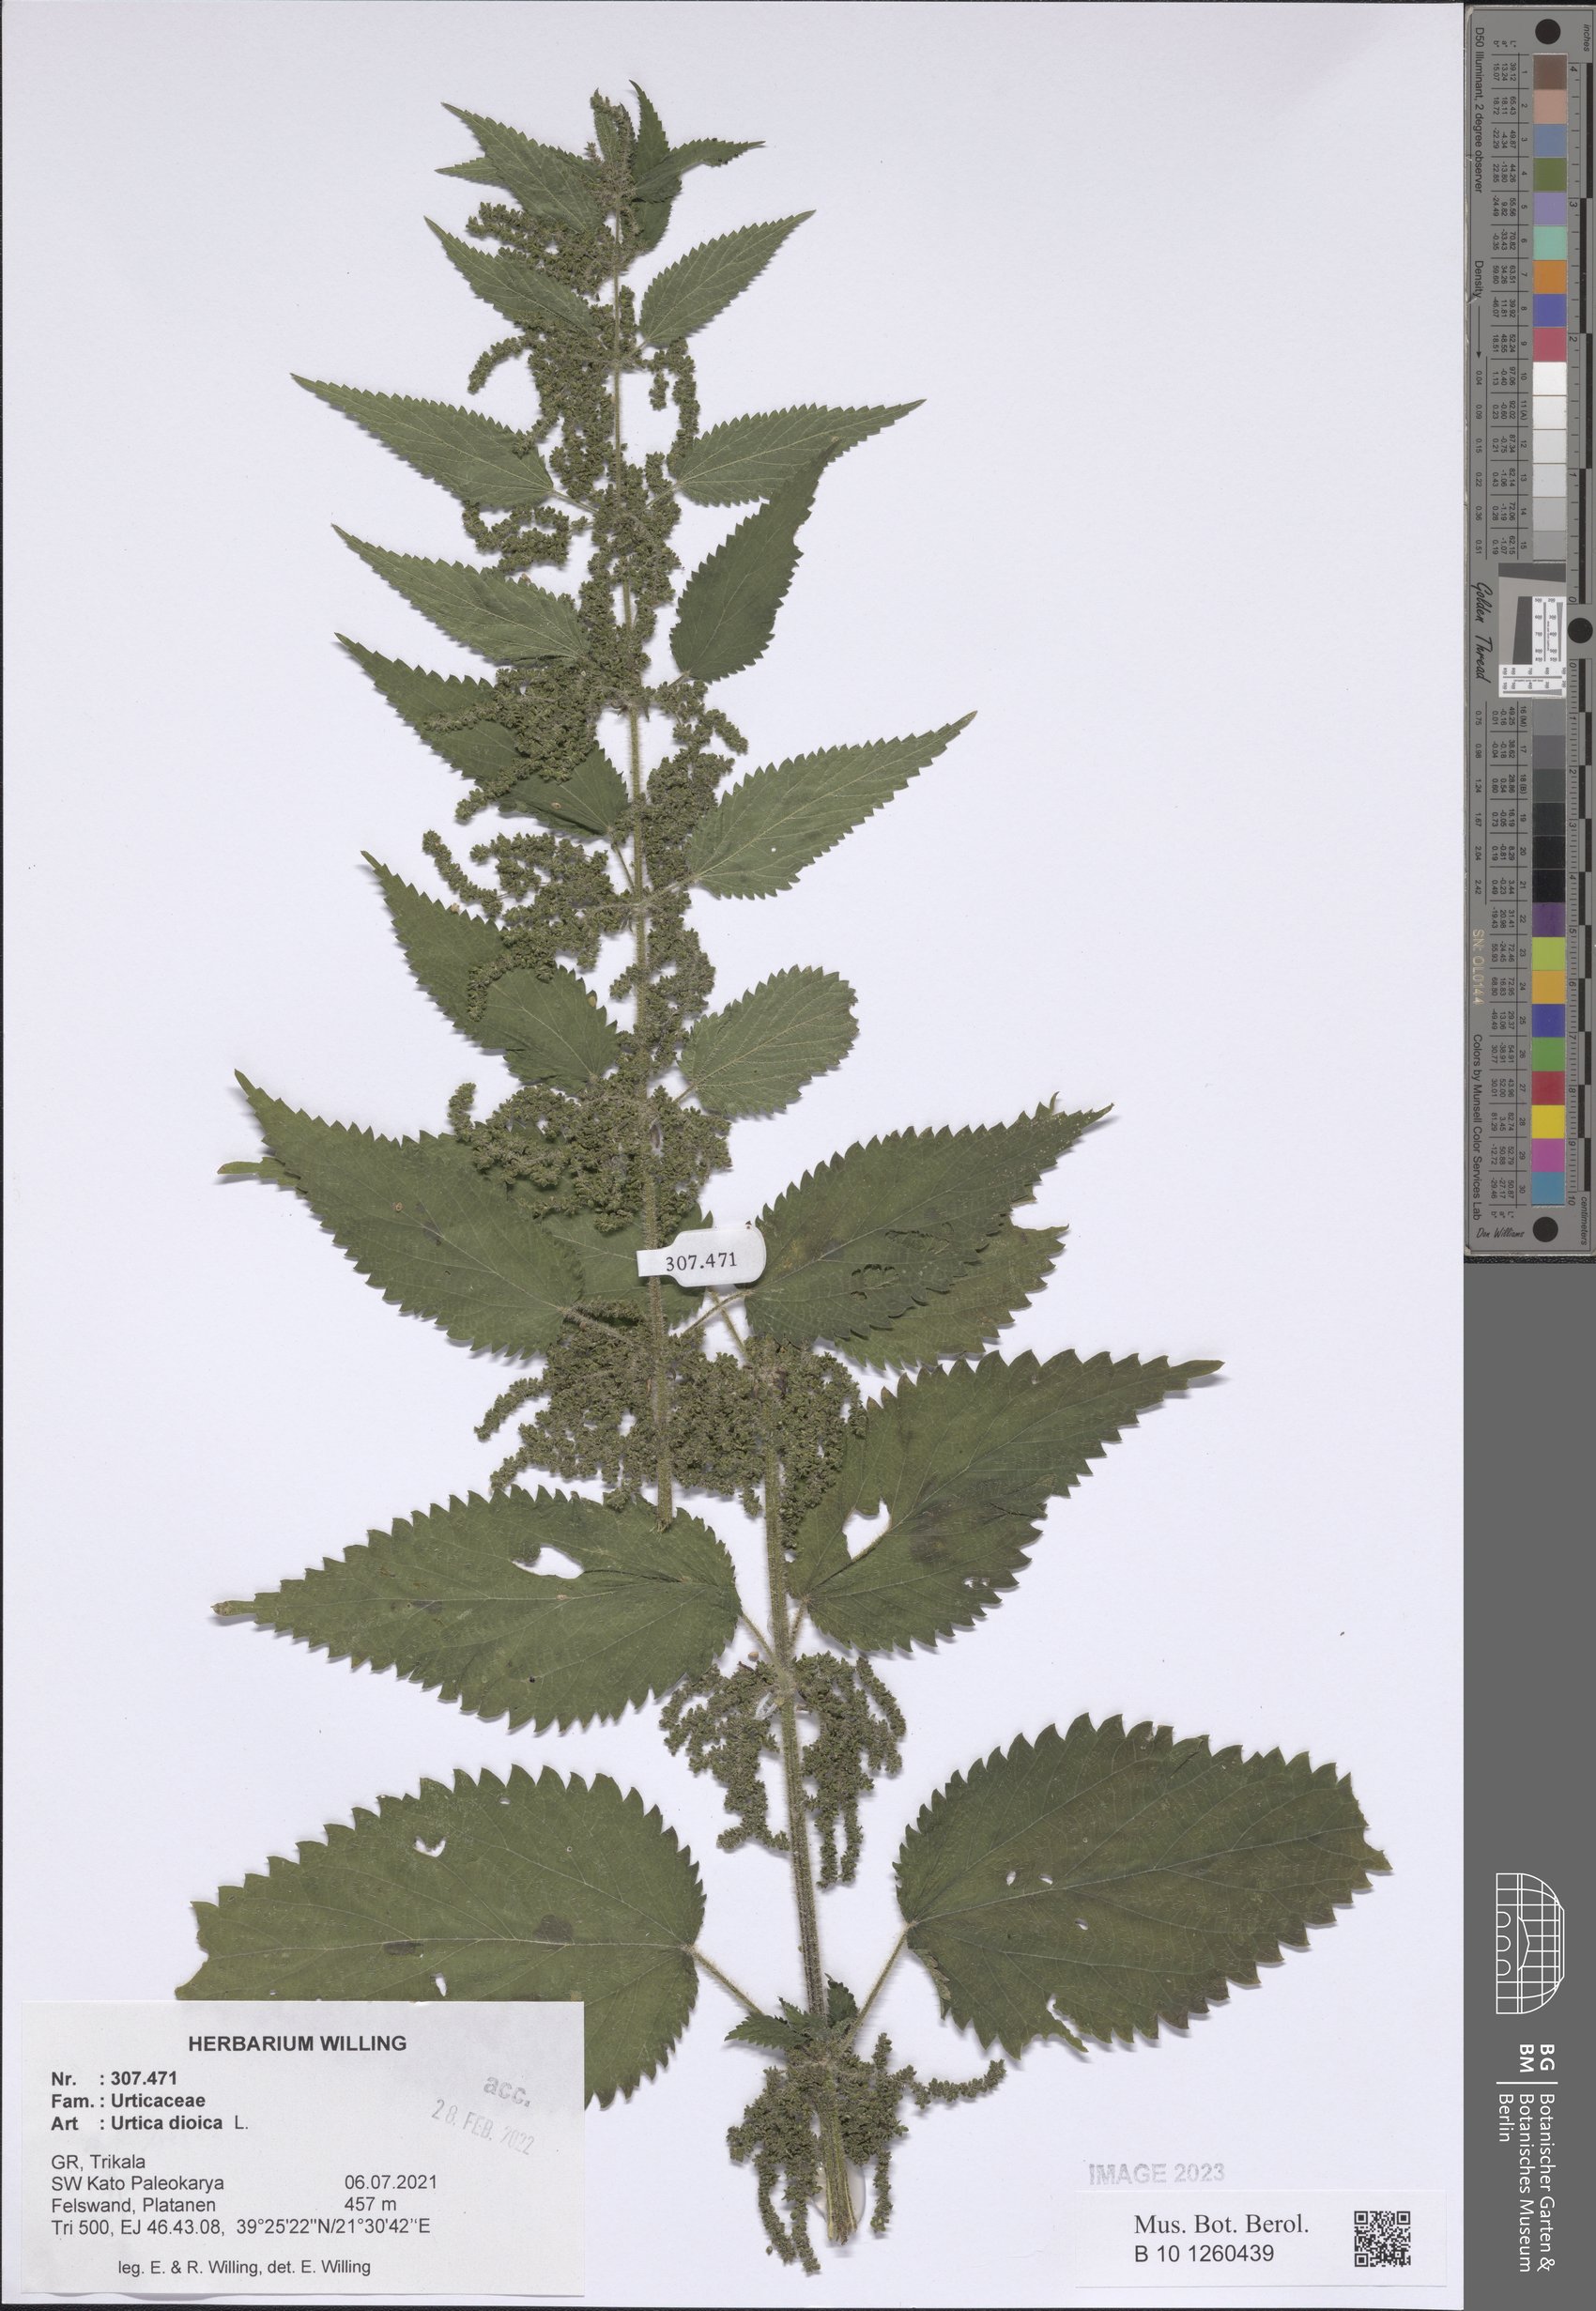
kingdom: Plantae
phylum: Tracheophyta
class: Magnoliopsida
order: Rosales
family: Urticaceae
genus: Urtica
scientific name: Urtica dioica
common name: Common nettle
